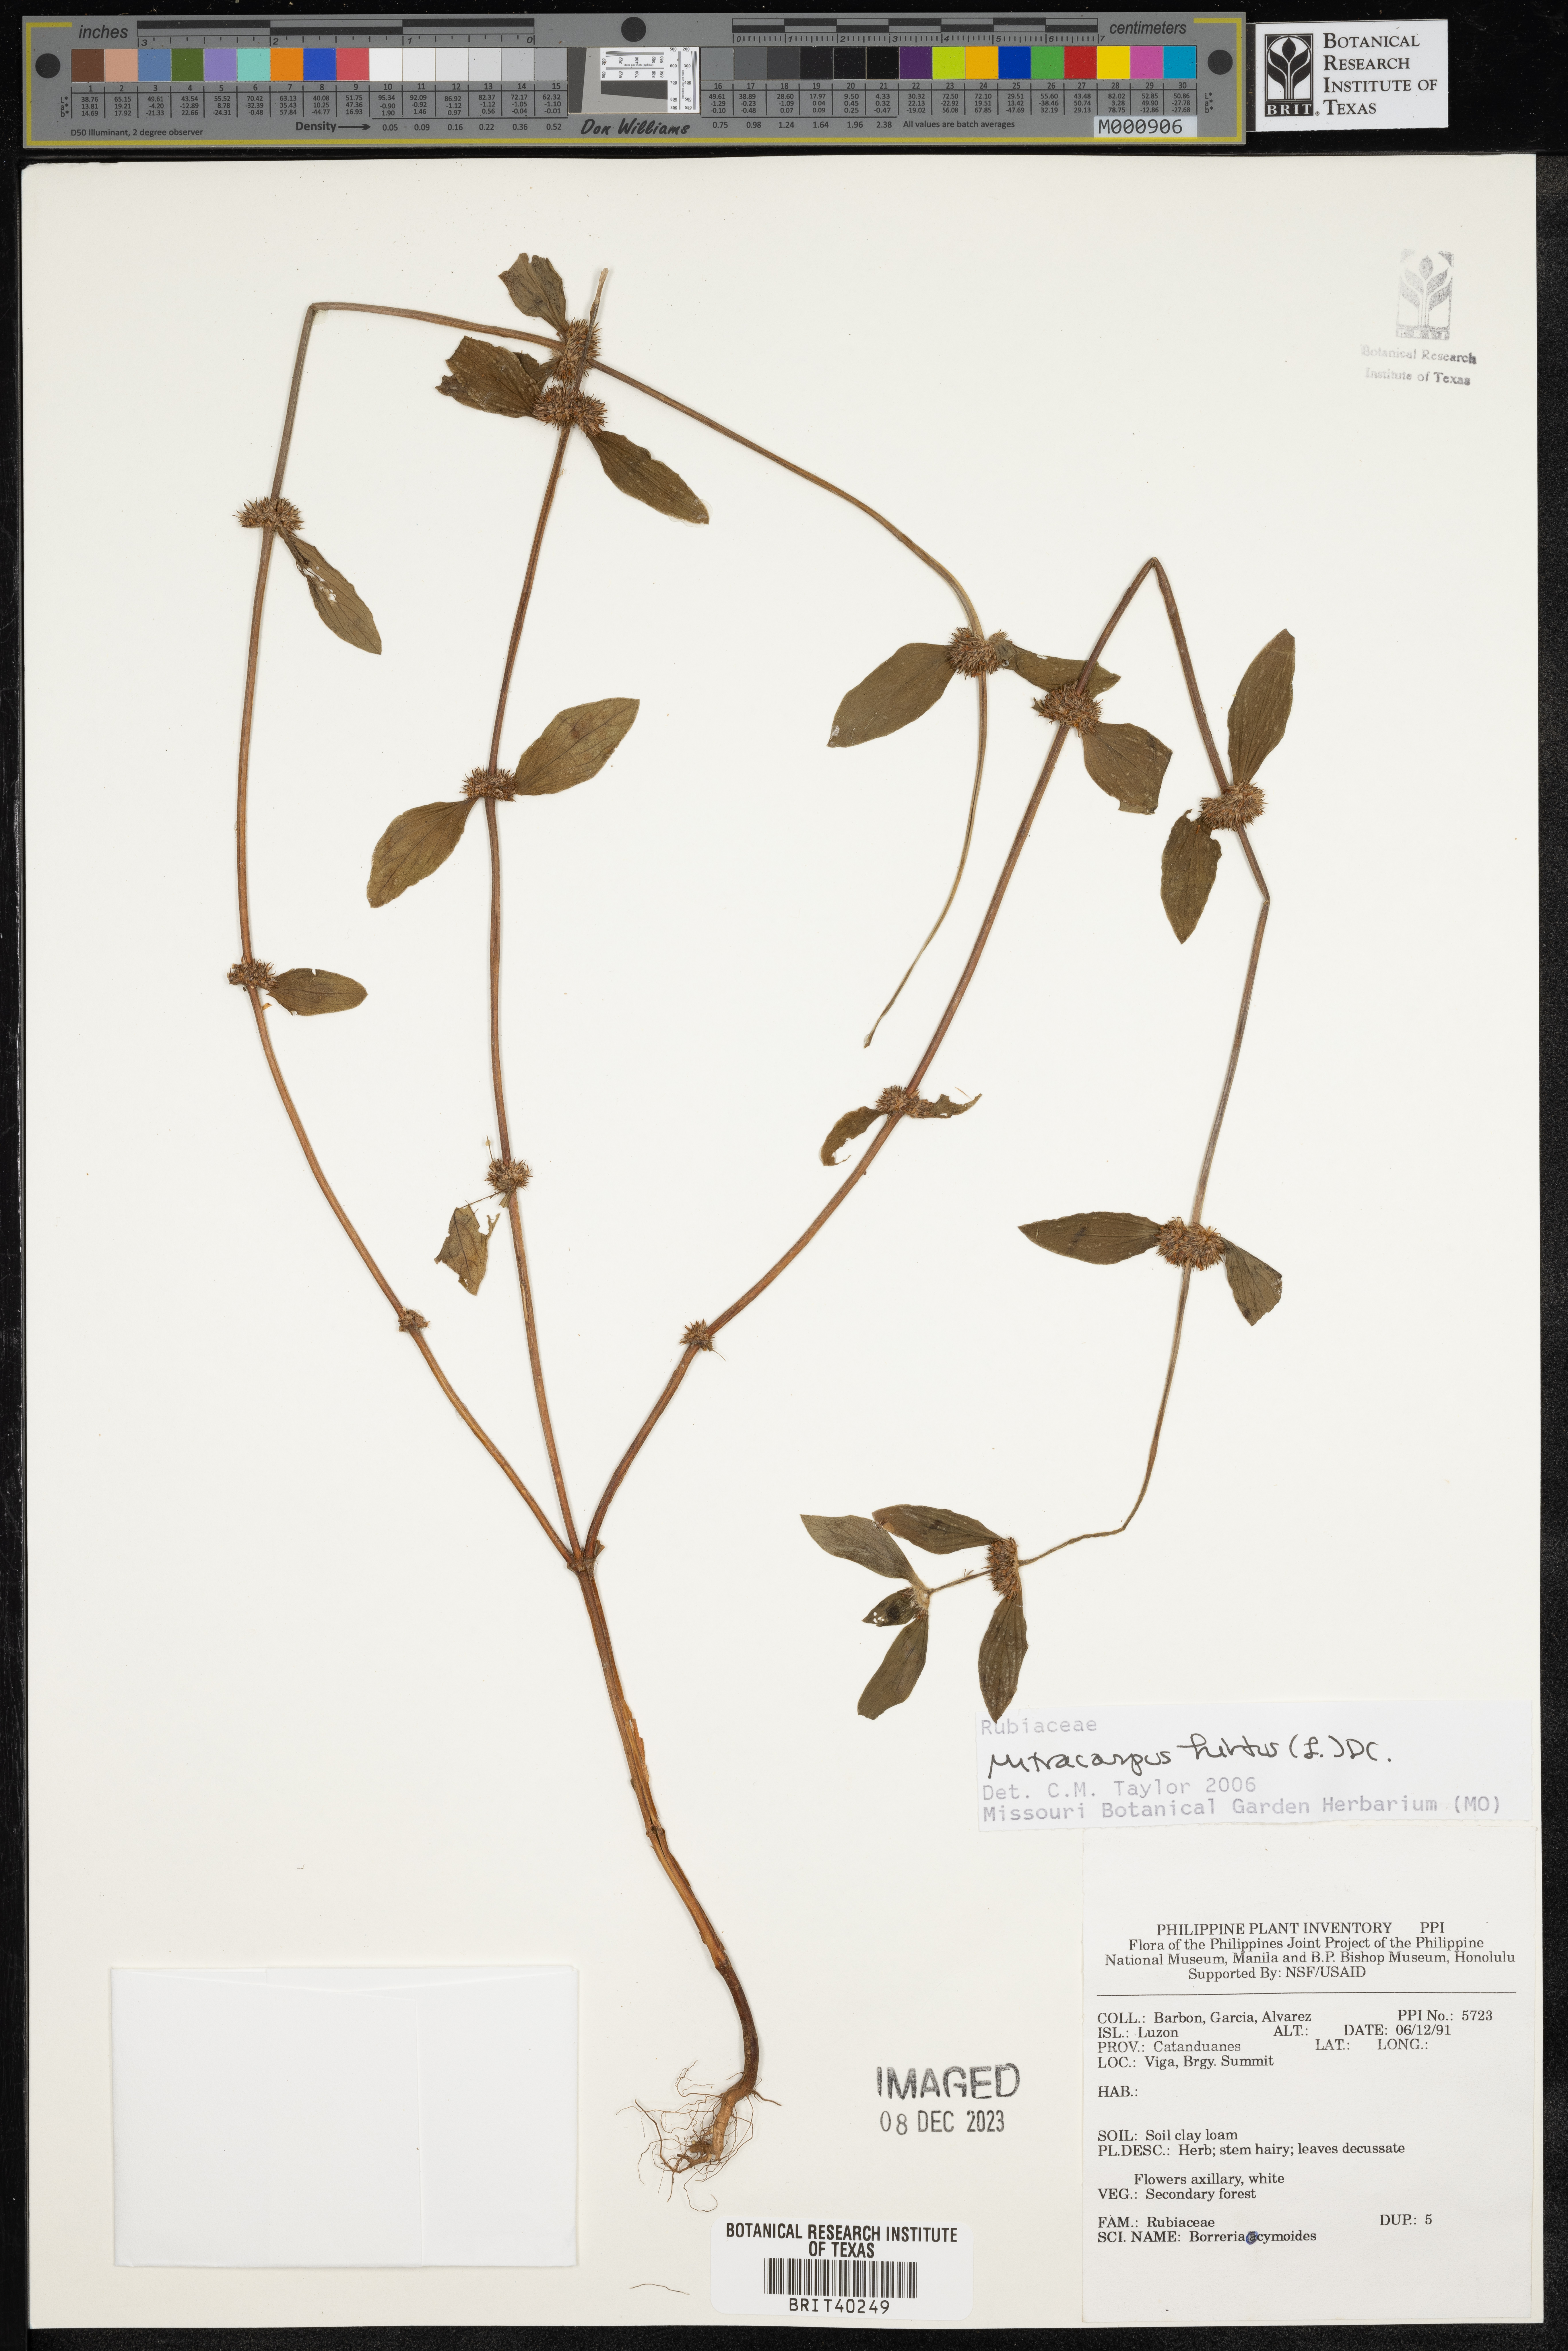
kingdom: Plantae
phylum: Tracheophyta
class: Magnoliopsida
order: Gentianales
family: Rubiaceae
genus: Mitracarpus
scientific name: Mitracarpus hirtus
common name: Tropical girdlepod
